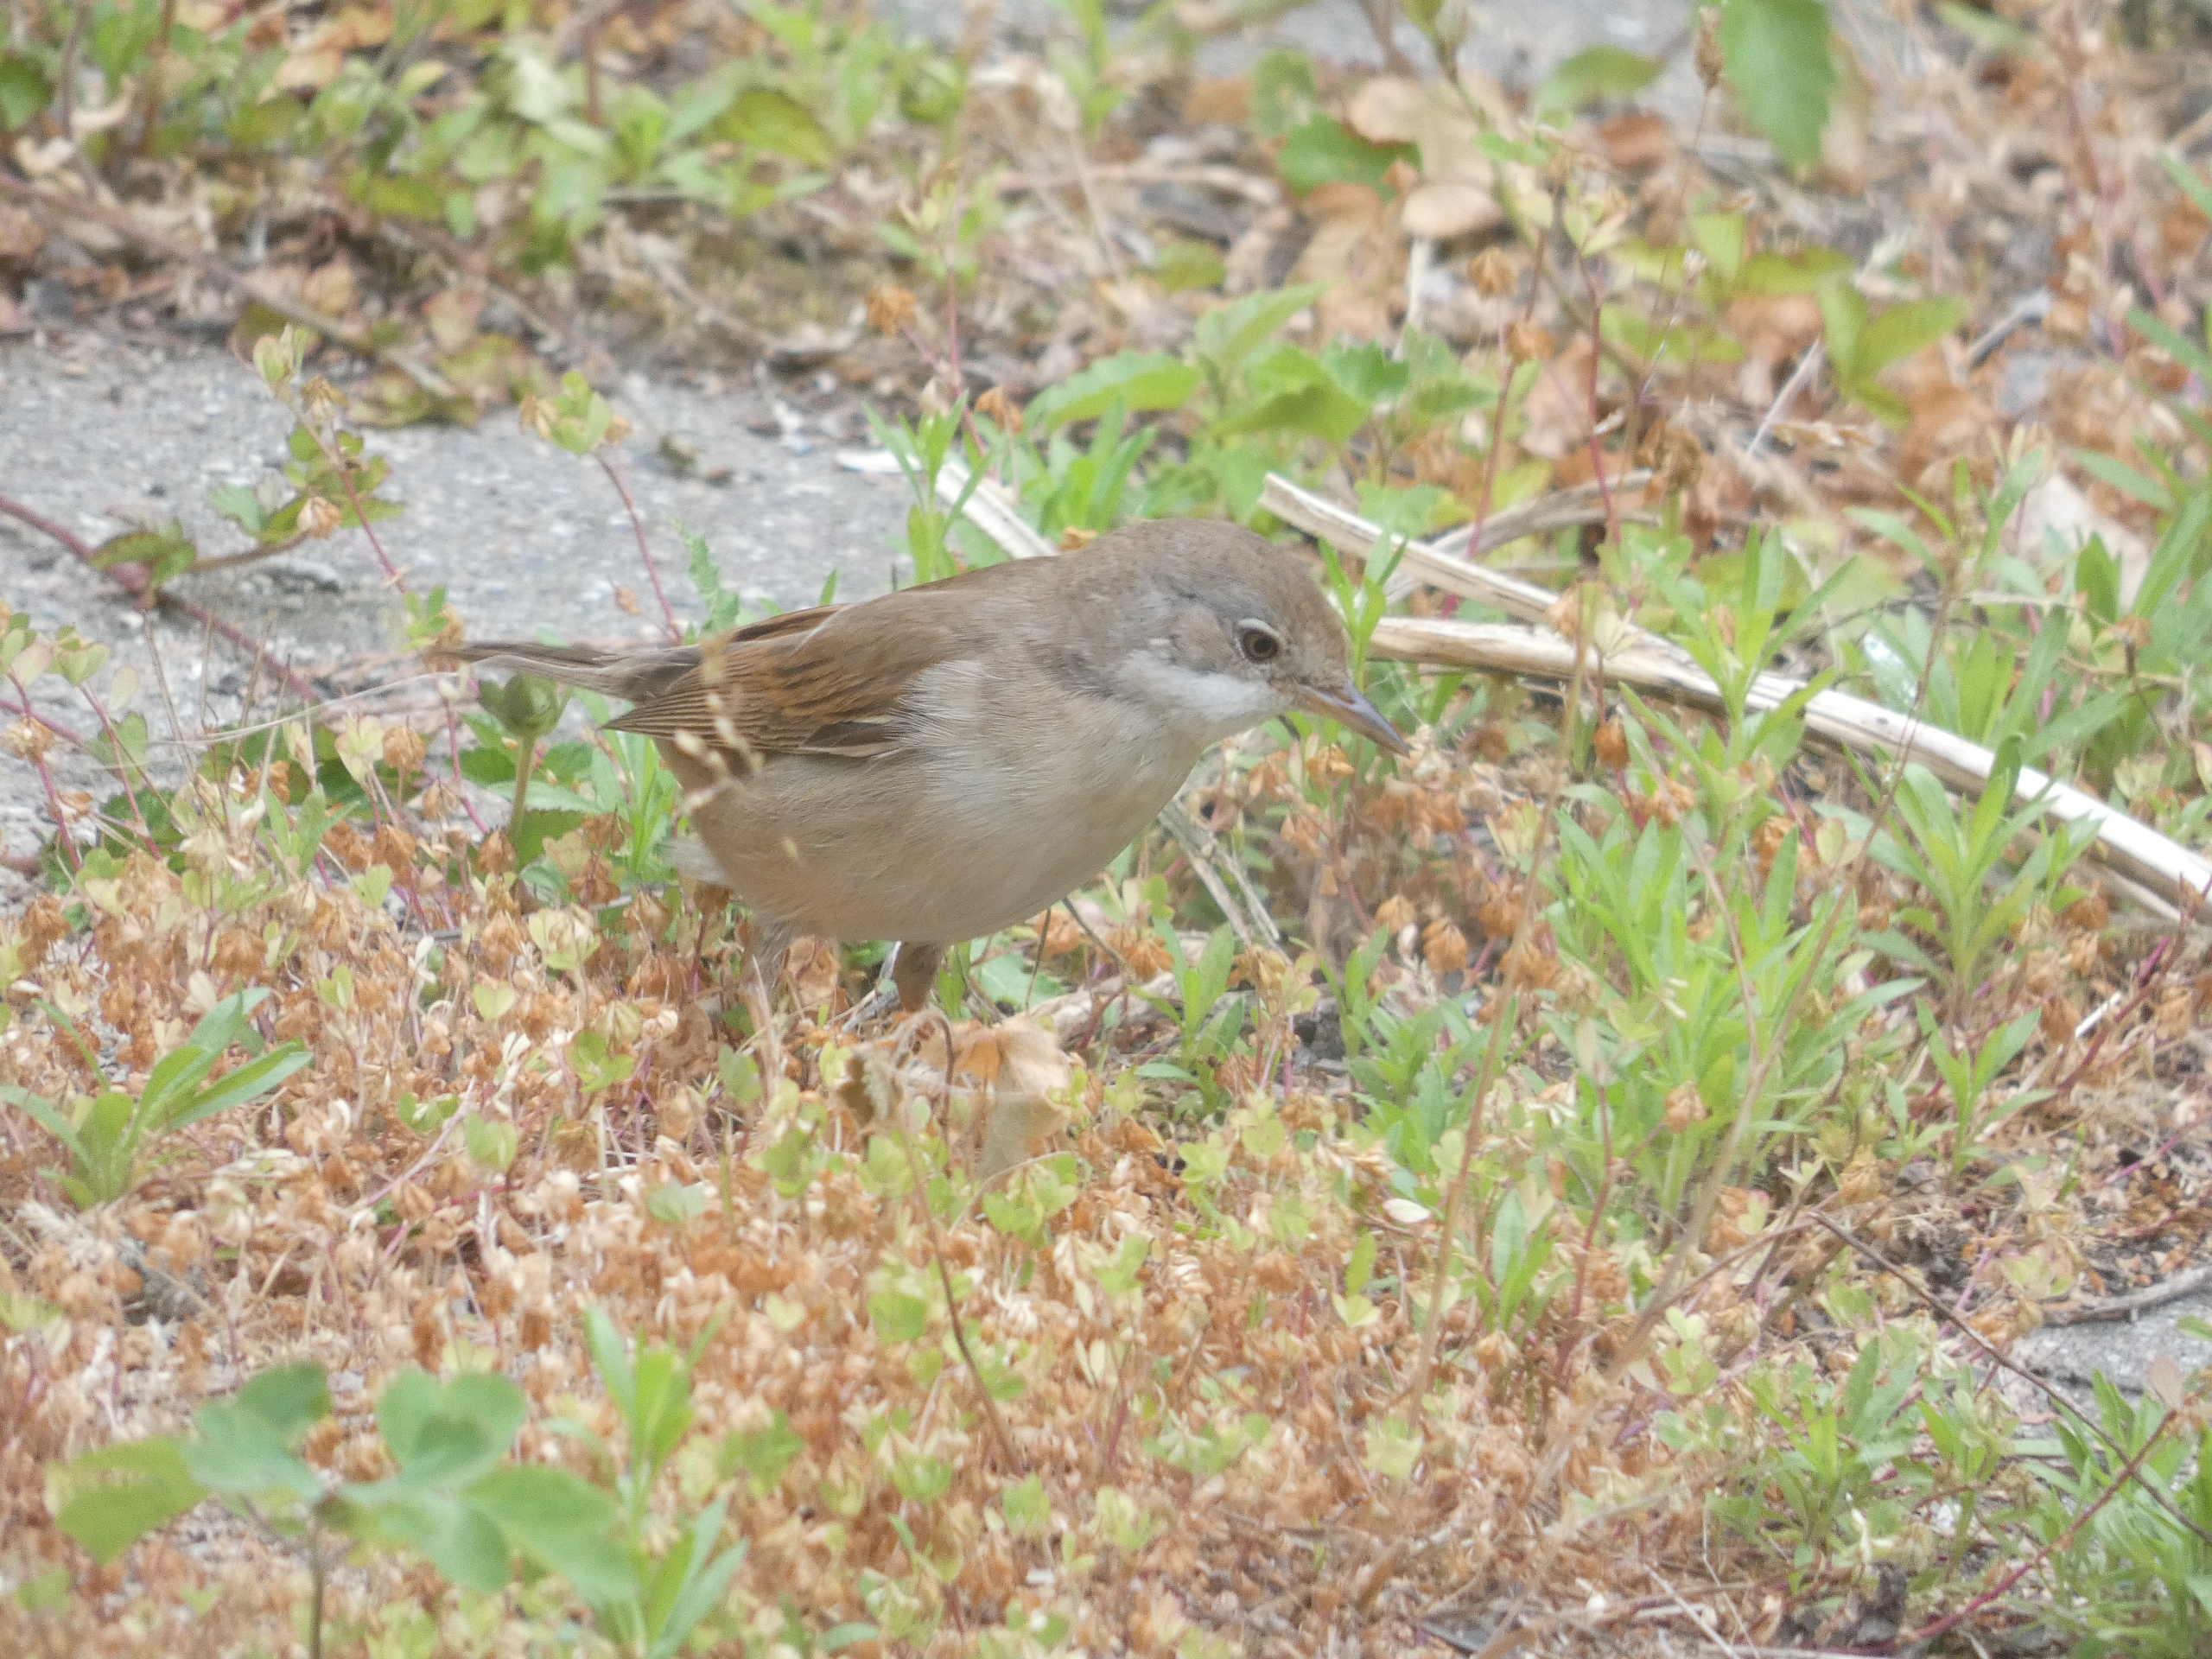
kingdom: Animalia
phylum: Chordata
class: Aves
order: Passeriformes
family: Sylviidae
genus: Sylvia
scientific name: Sylvia communis
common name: Tornsanger
